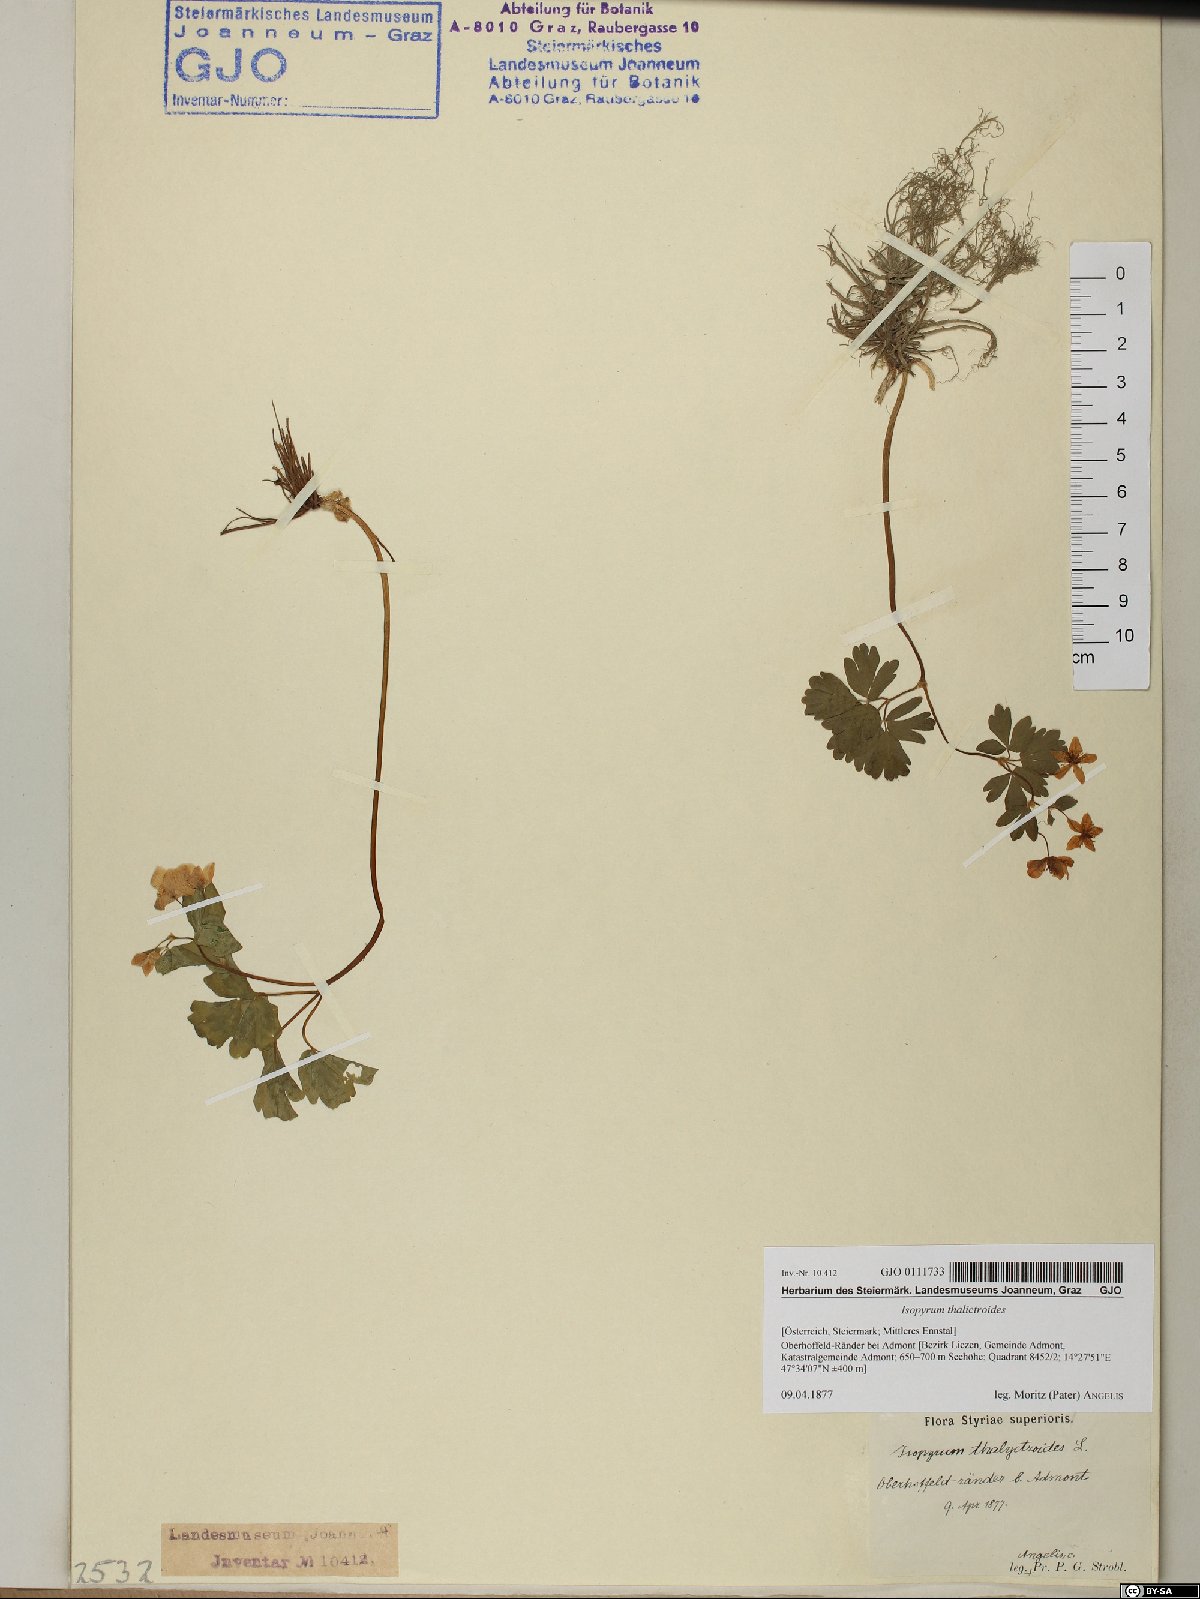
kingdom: Plantae
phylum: Tracheophyta
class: Magnoliopsida
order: Ranunculales
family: Ranunculaceae
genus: Isopyrum
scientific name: Isopyrum thalictroides
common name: Isopyrum
